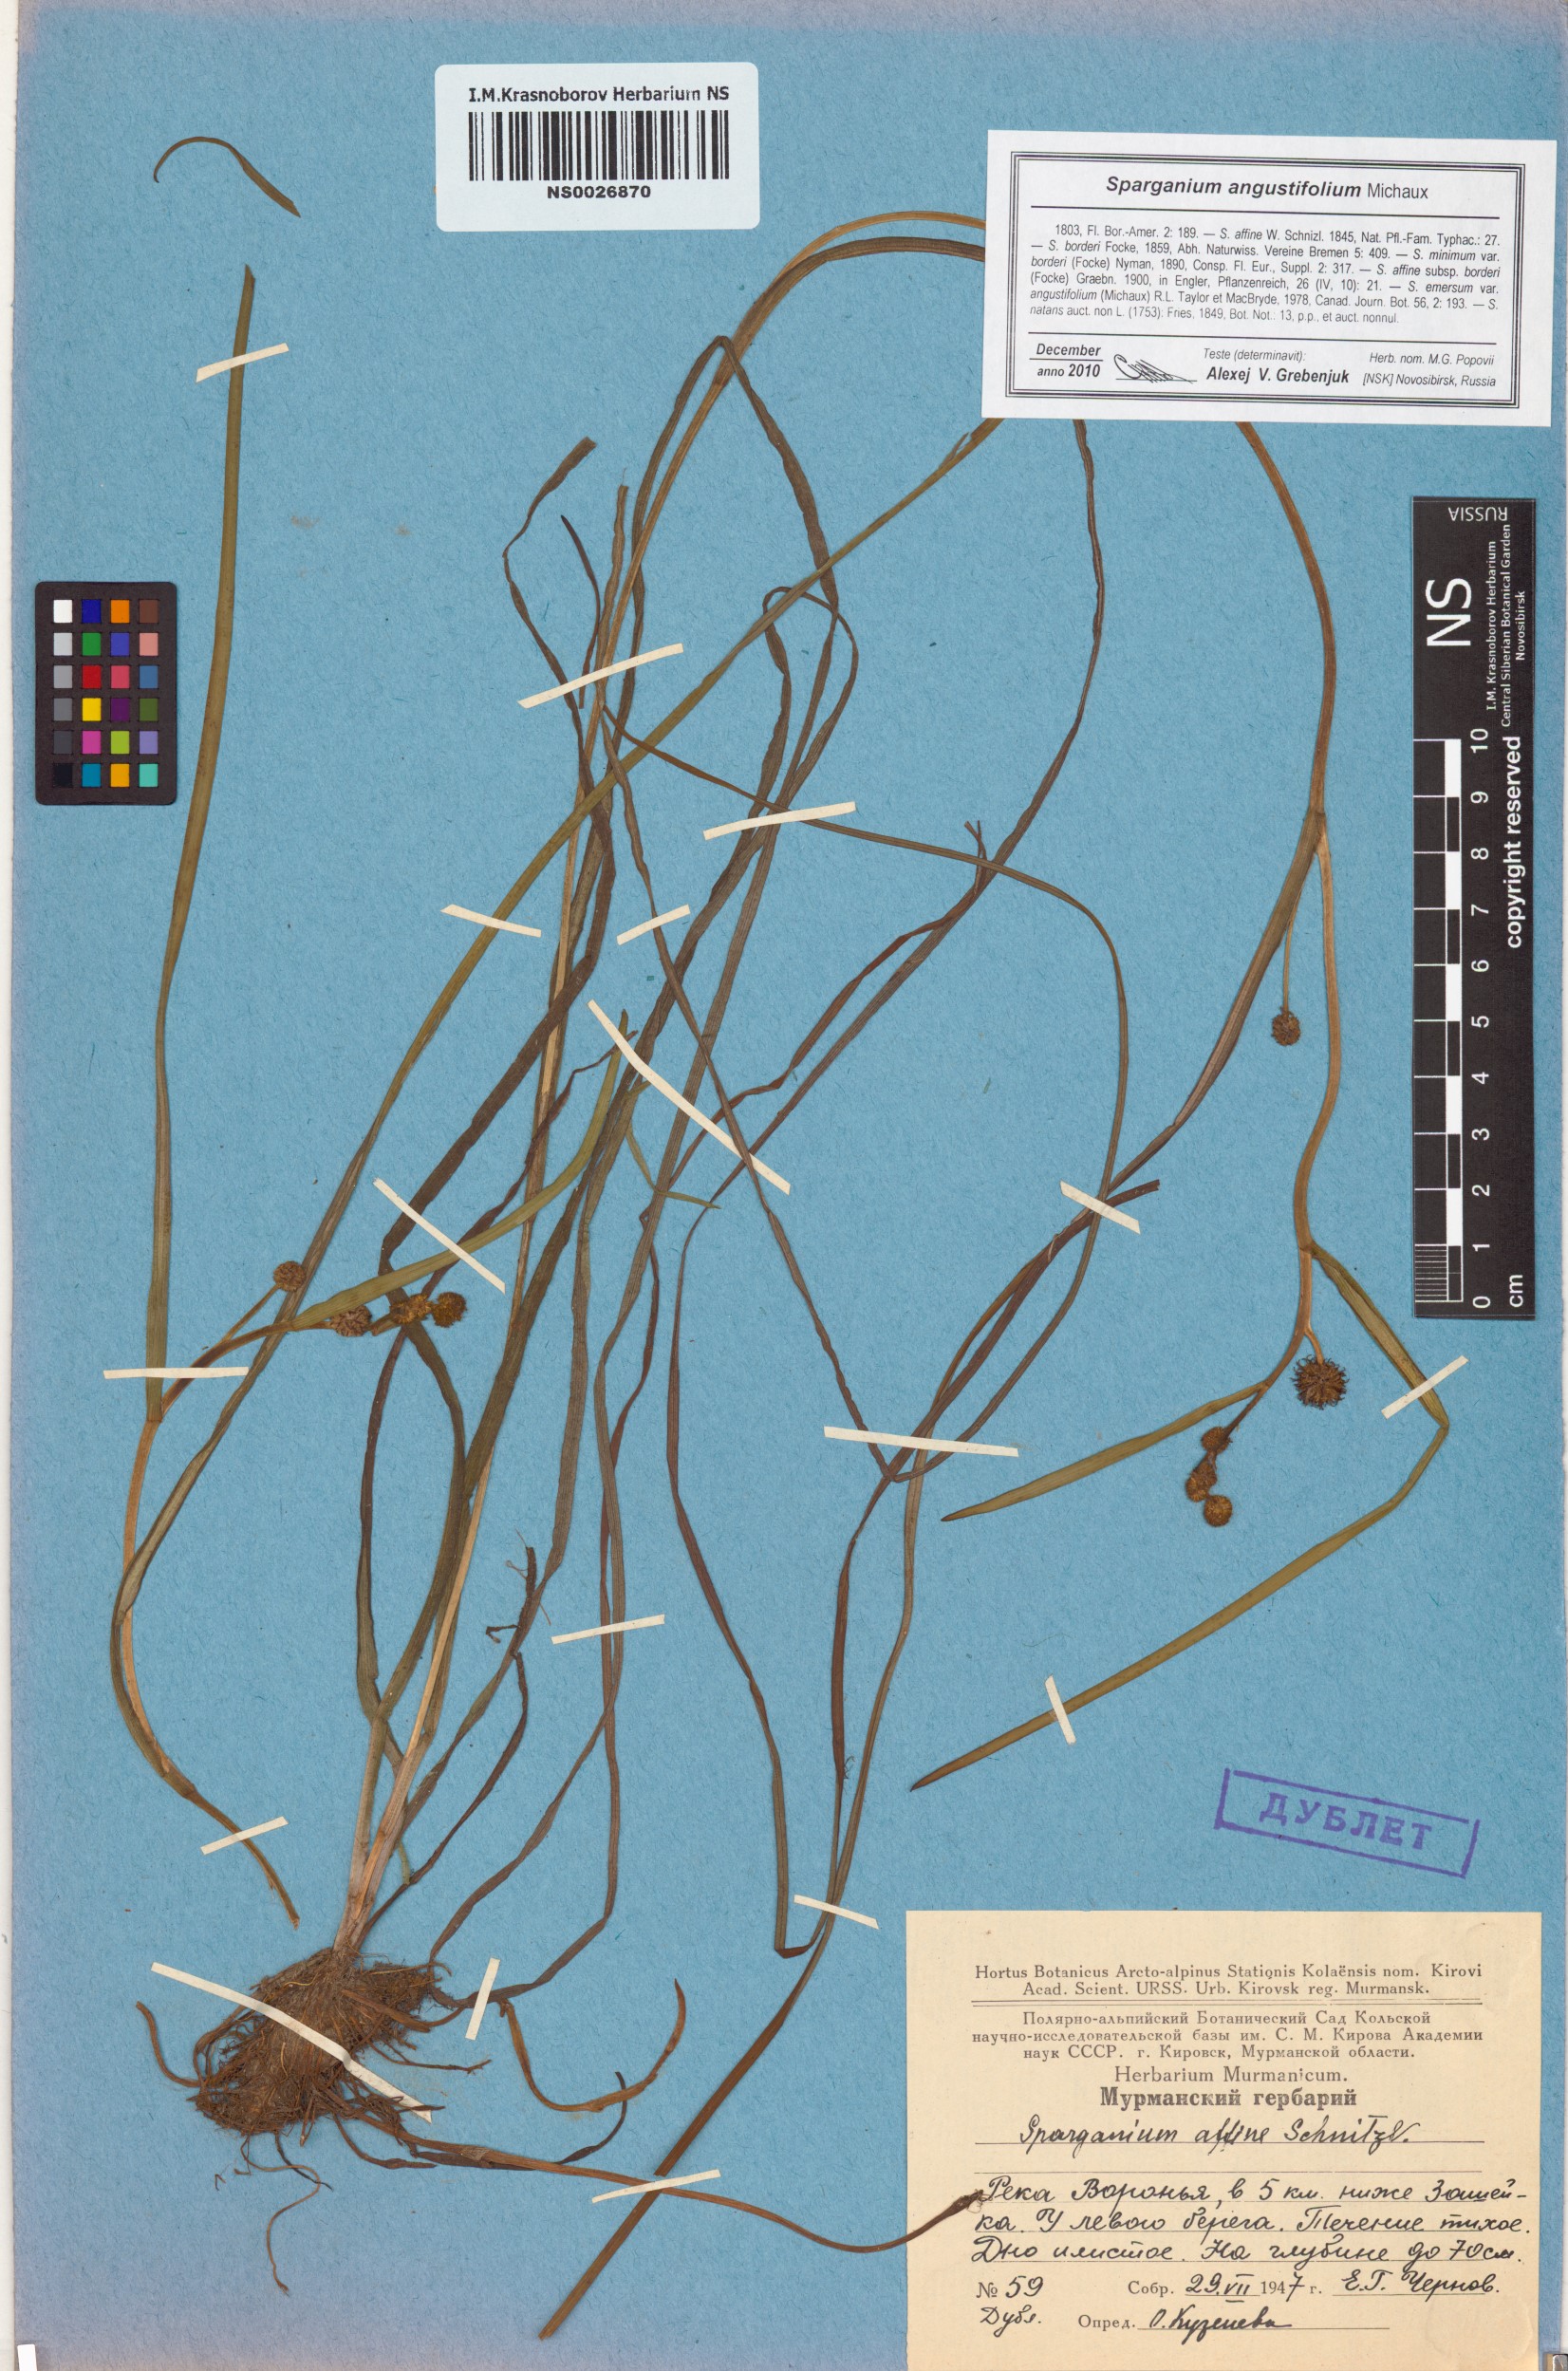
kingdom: Plantae
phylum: Tracheophyta
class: Liliopsida
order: Poales
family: Typhaceae
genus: Sparganium
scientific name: Sparganium angustifolium
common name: Floating bur-reed
